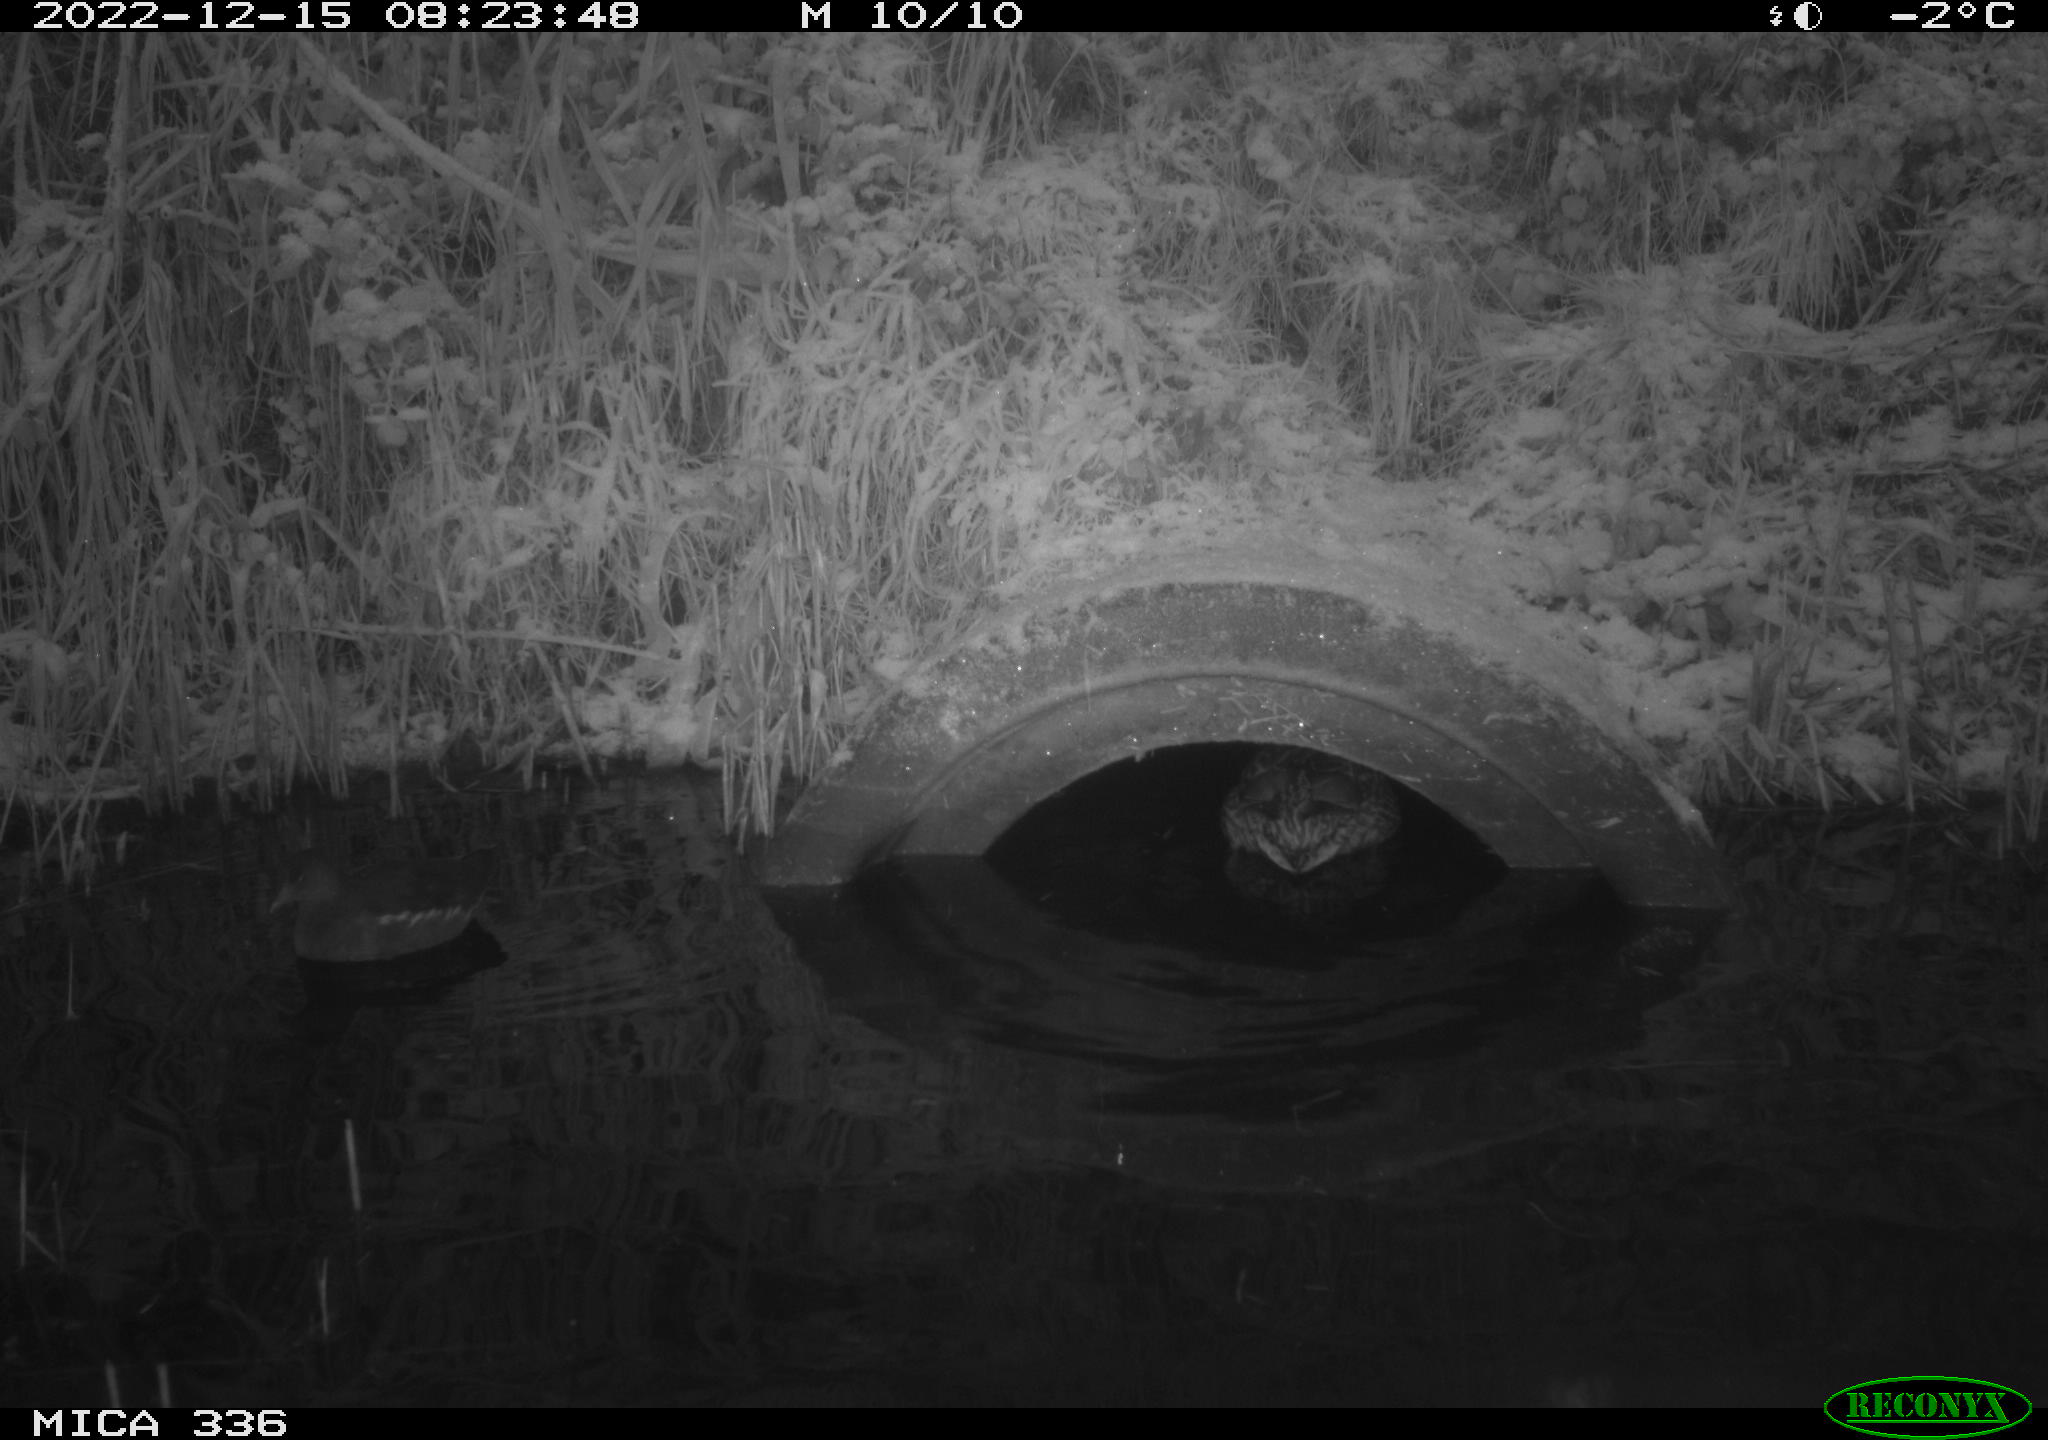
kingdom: Animalia
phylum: Chordata
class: Aves
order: Anseriformes
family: Anatidae
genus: Anas
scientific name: Anas
